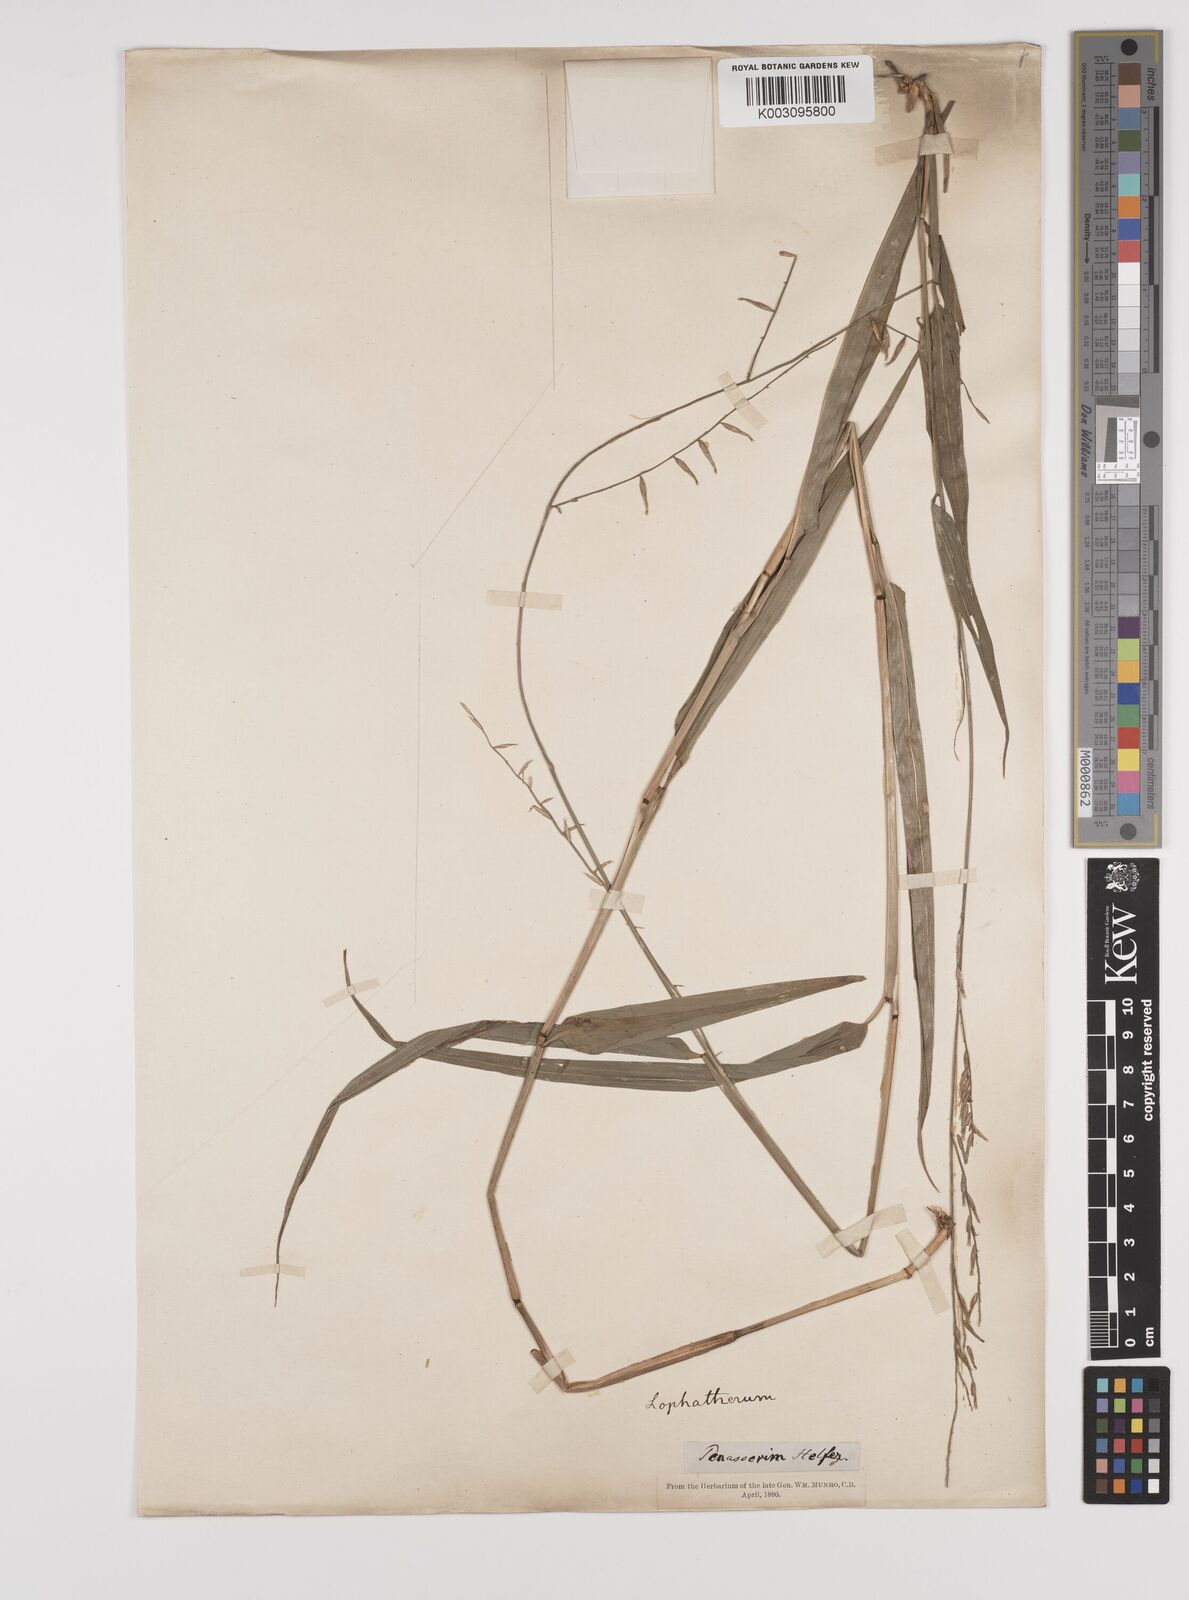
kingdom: Plantae
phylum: Tracheophyta
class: Liliopsida
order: Poales
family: Poaceae
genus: Lophatherum
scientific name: Lophatherum gracile
